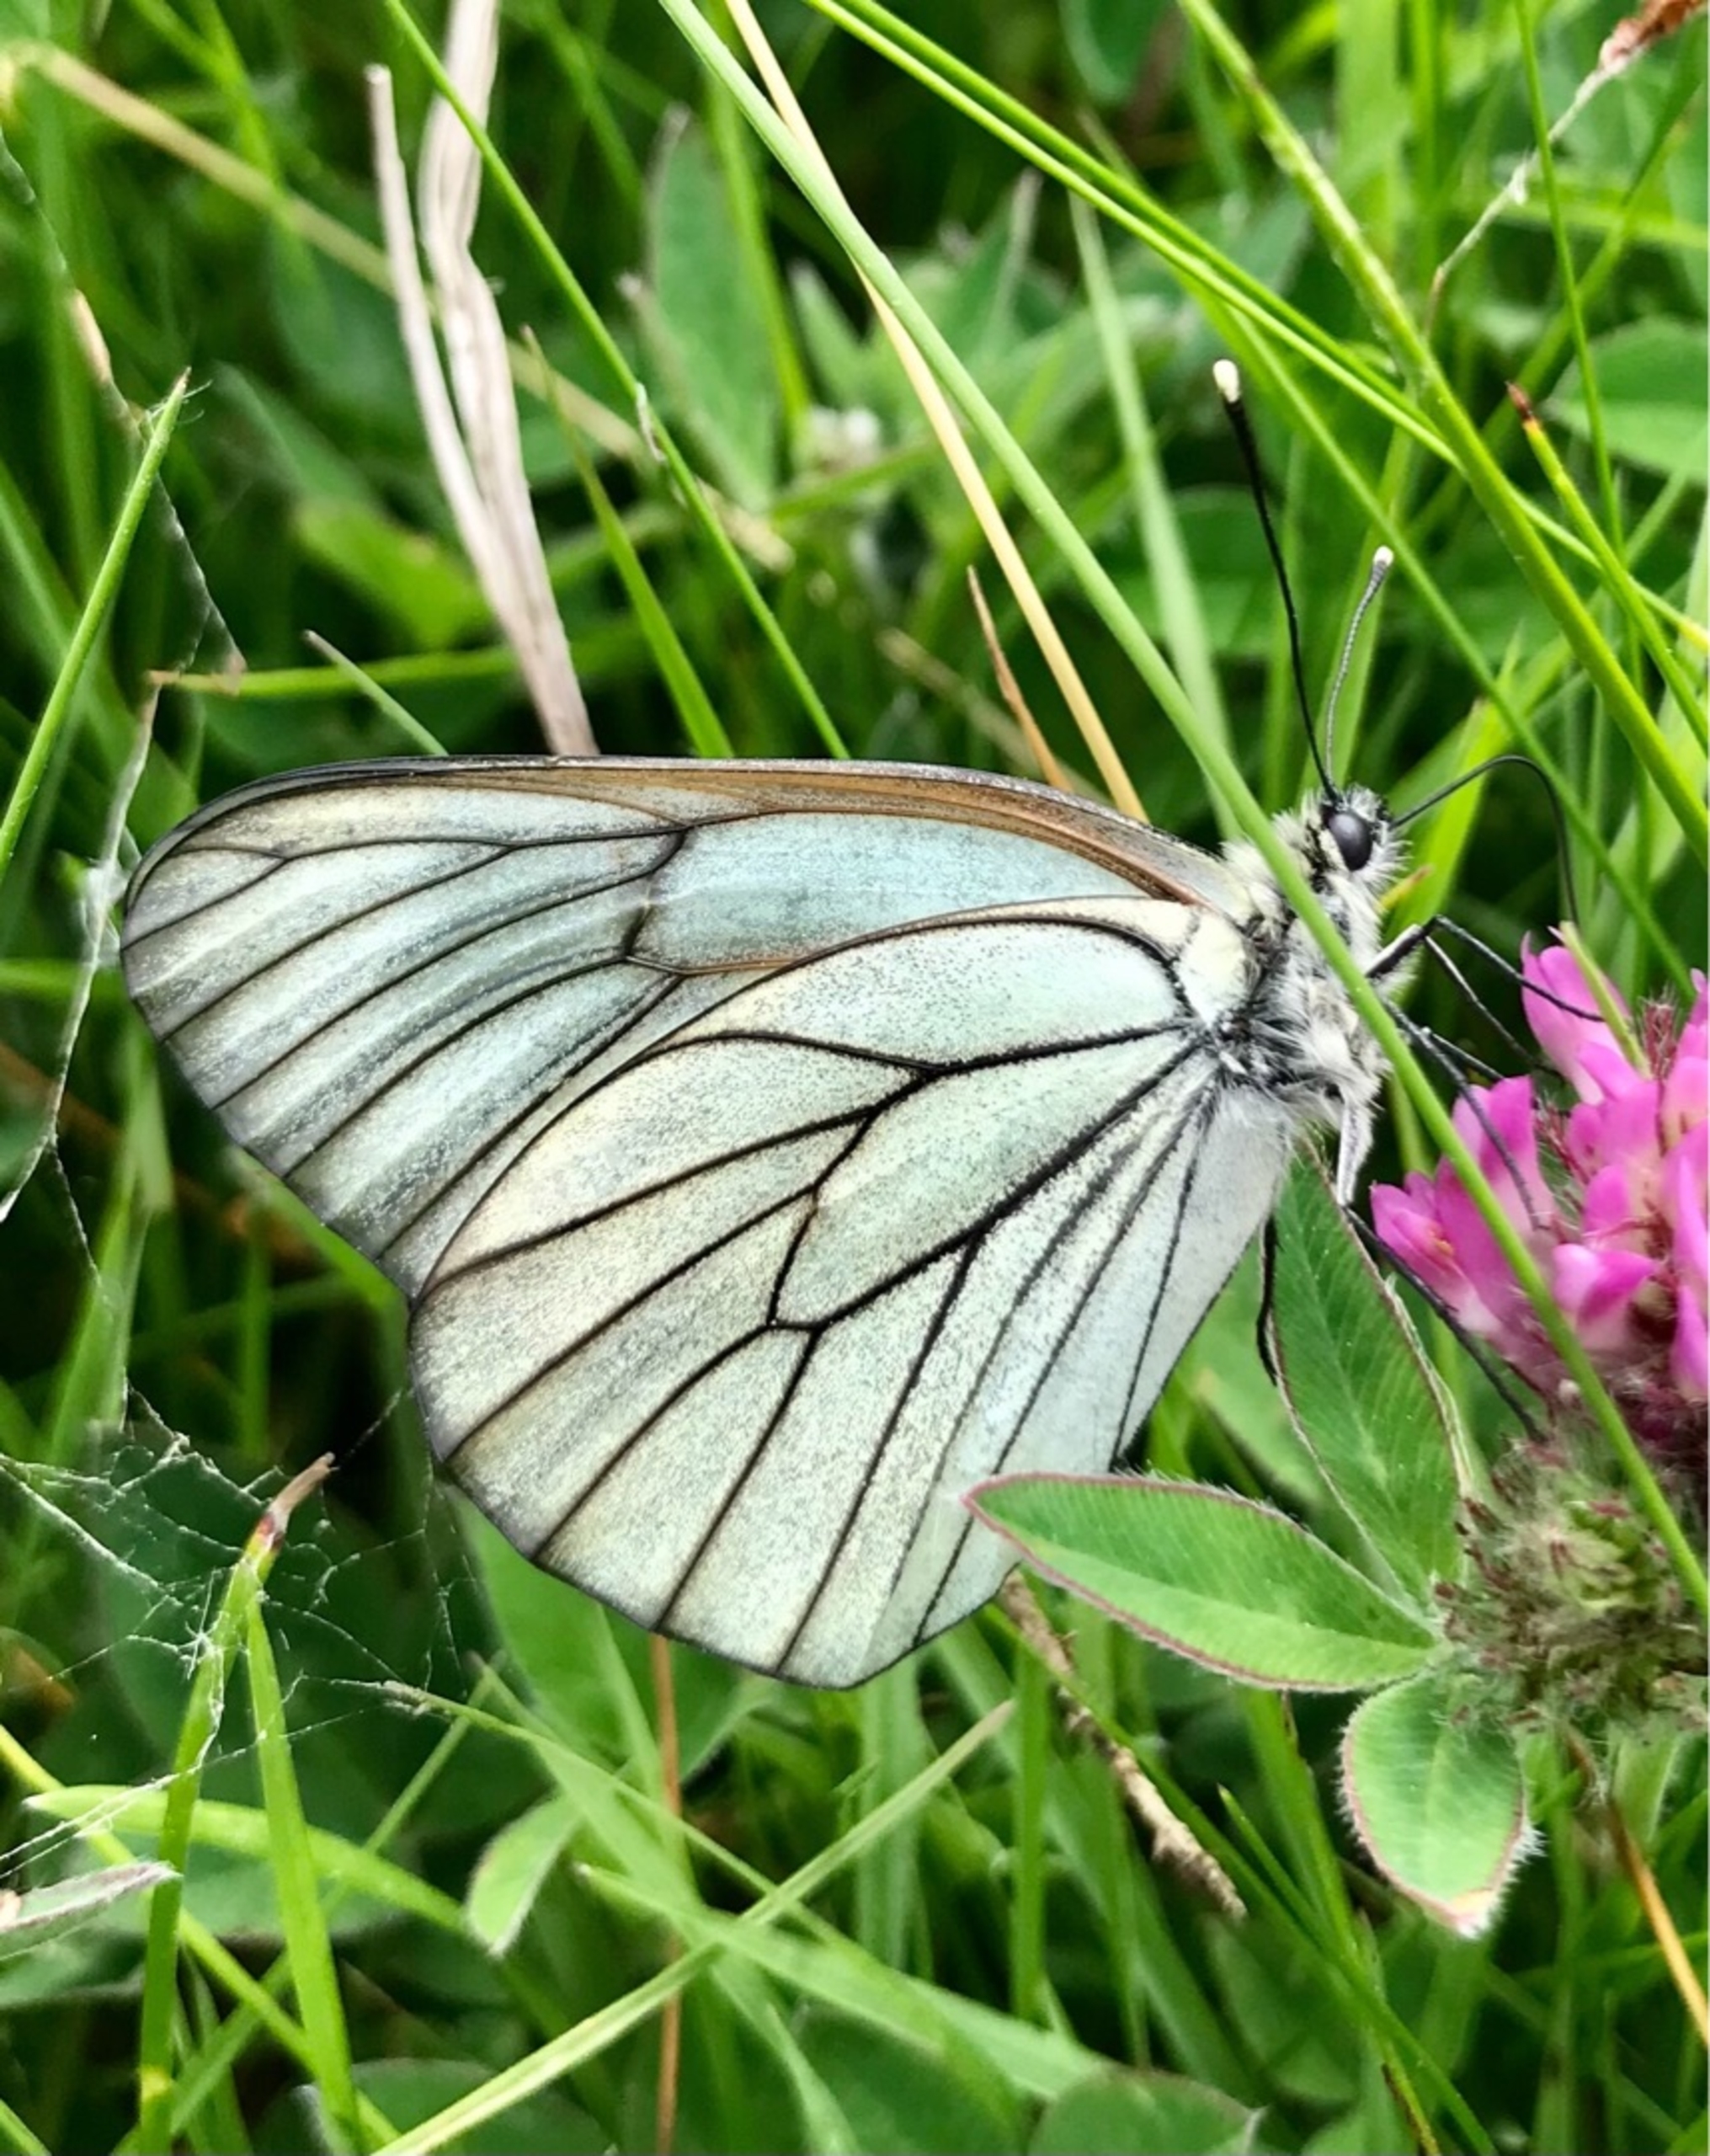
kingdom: Animalia
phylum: Arthropoda
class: Insecta
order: Lepidoptera
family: Pieridae
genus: Aporia
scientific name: Aporia crataegi
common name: Sortåret hvidvinge
